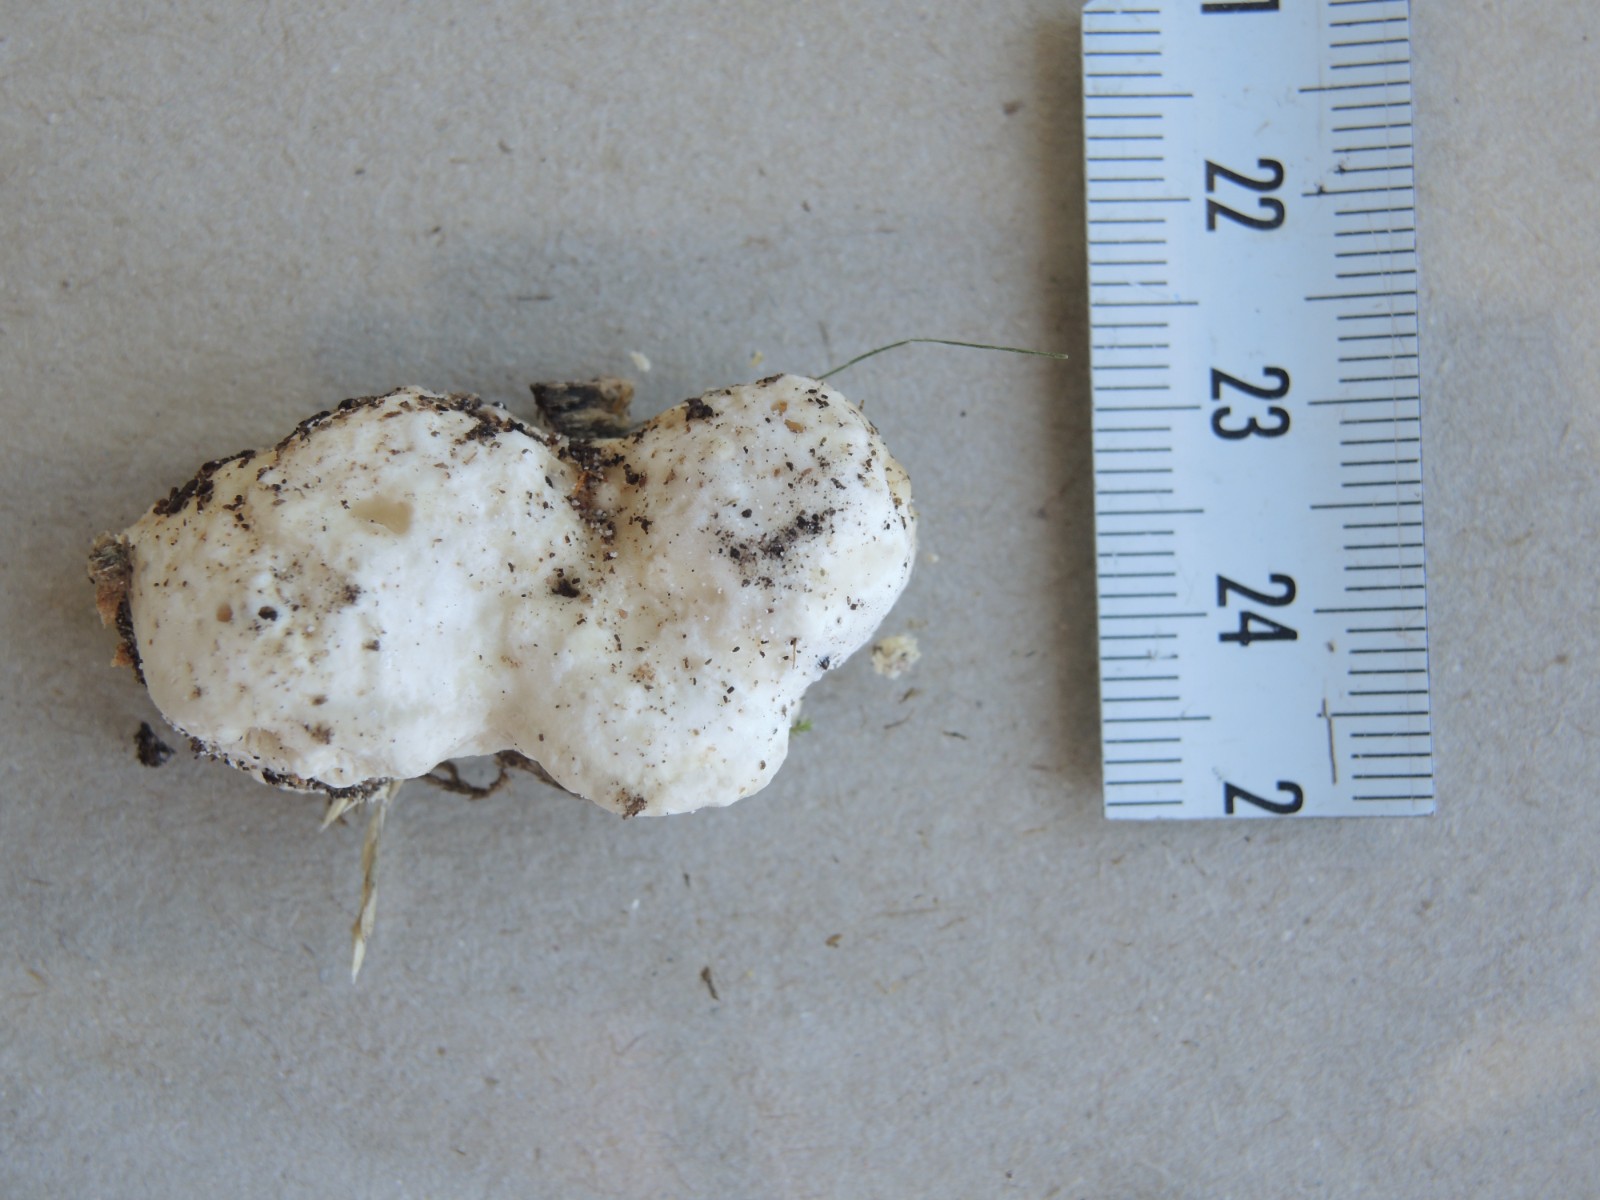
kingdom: Fungi
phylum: Basidiomycota
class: Agaricomycetes
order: Polyporales
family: Polyporaceae
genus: Trametes
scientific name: Trametes gibbosa
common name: puklet læderporesvamp
